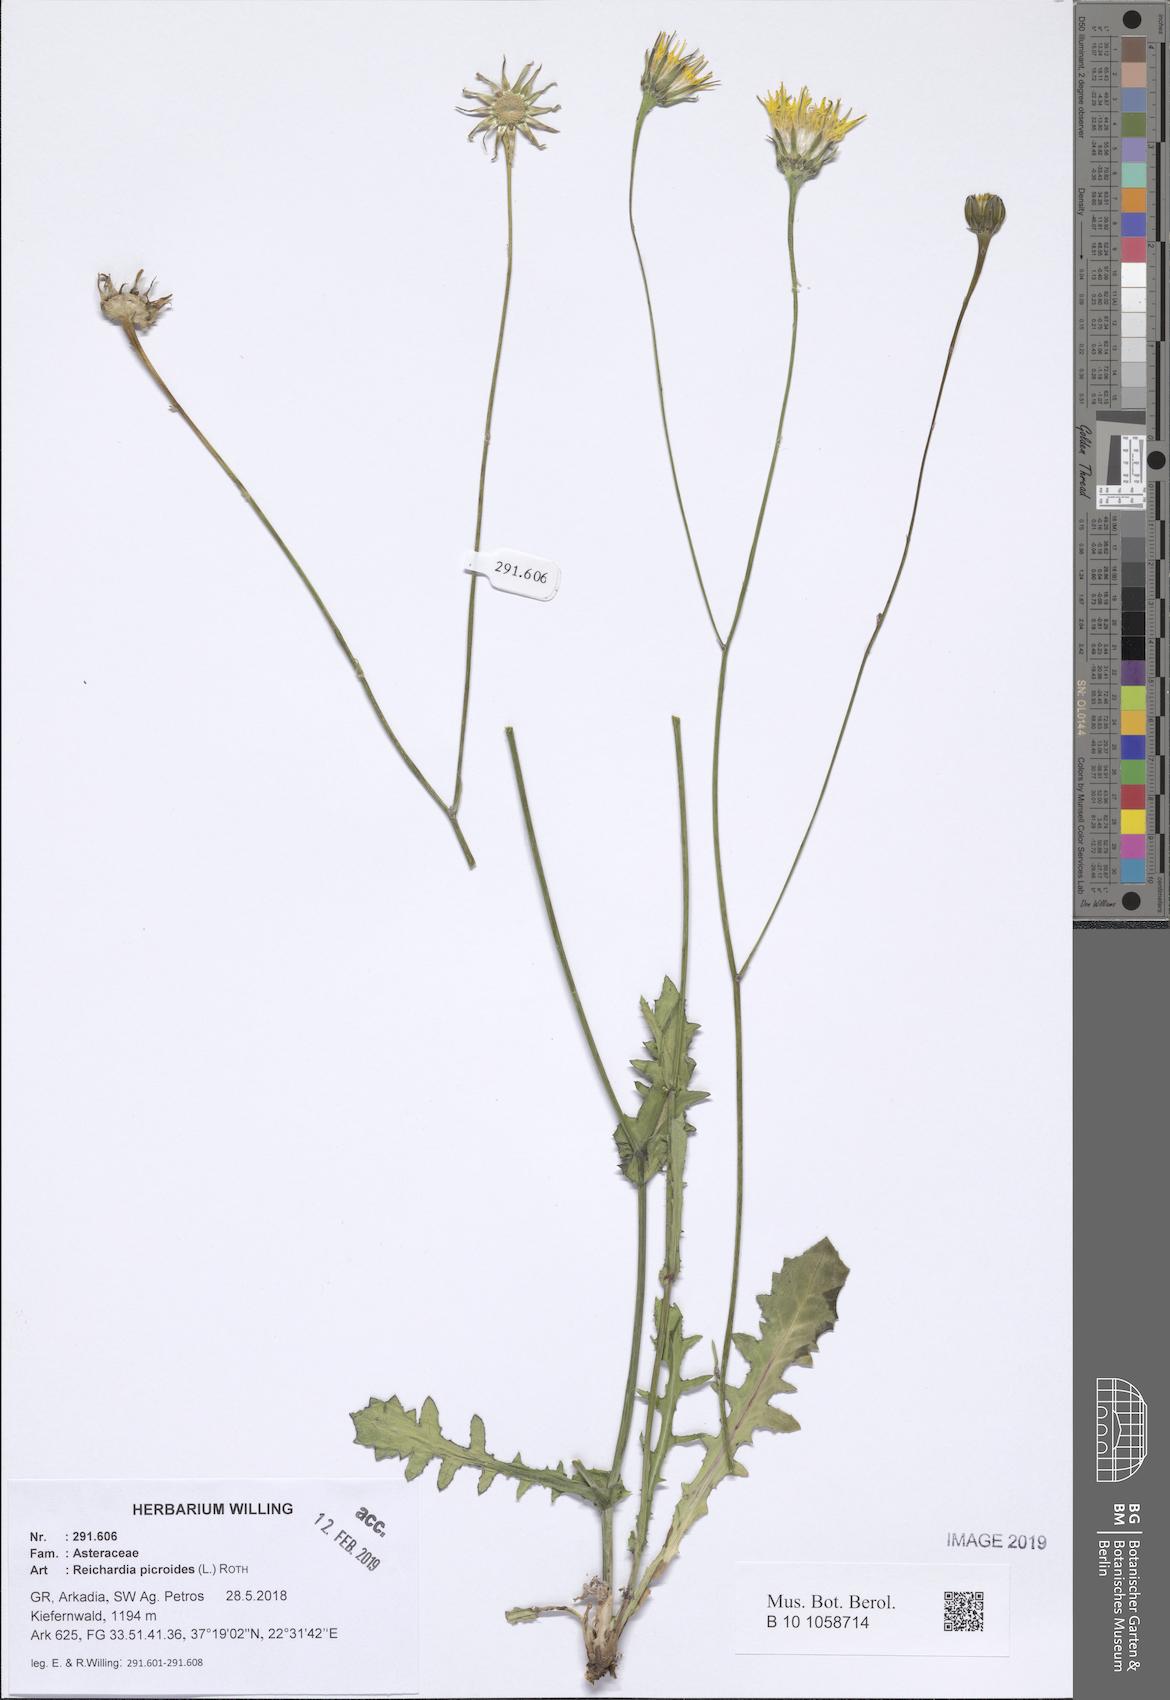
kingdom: Plantae
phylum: Tracheophyta
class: Magnoliopsida
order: Asterales
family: Asteraceae
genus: Reichardia
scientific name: Reichardia picroides
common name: Common brighteyes
